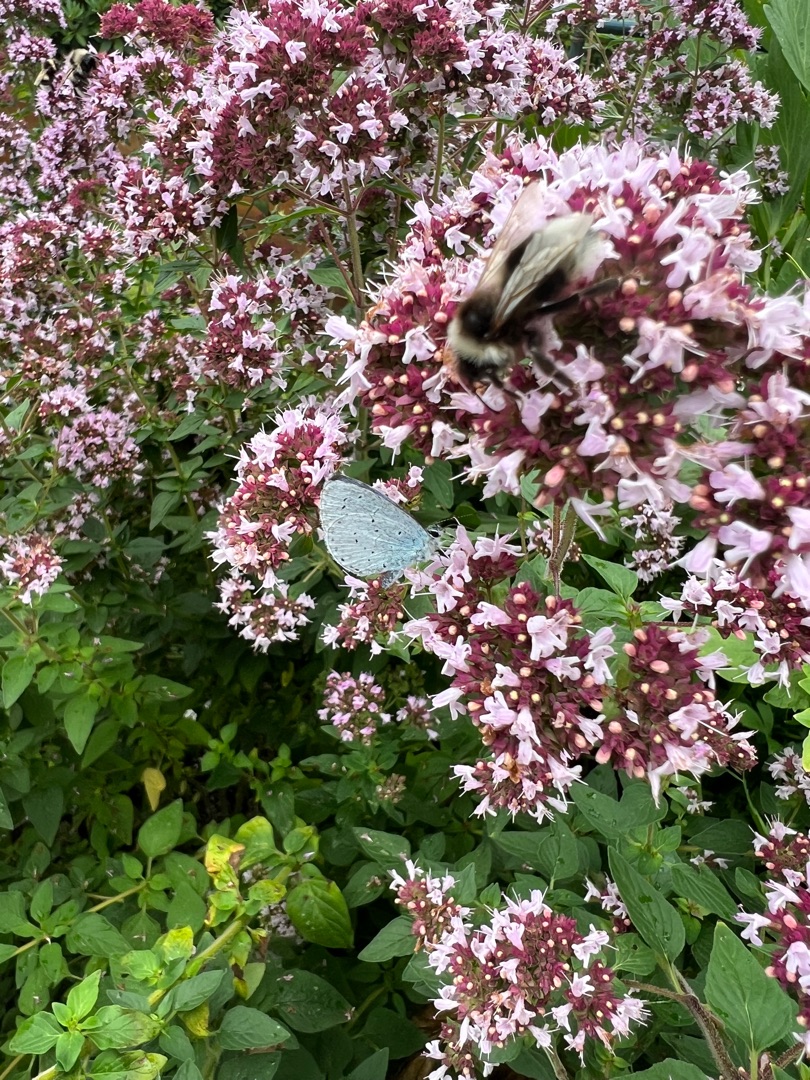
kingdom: Animalia
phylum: Arthropoda
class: Insecta
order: Lepidoptera
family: Lycaenidae
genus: Celastrina
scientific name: Celastrina argiolus
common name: Skovblåfugl
